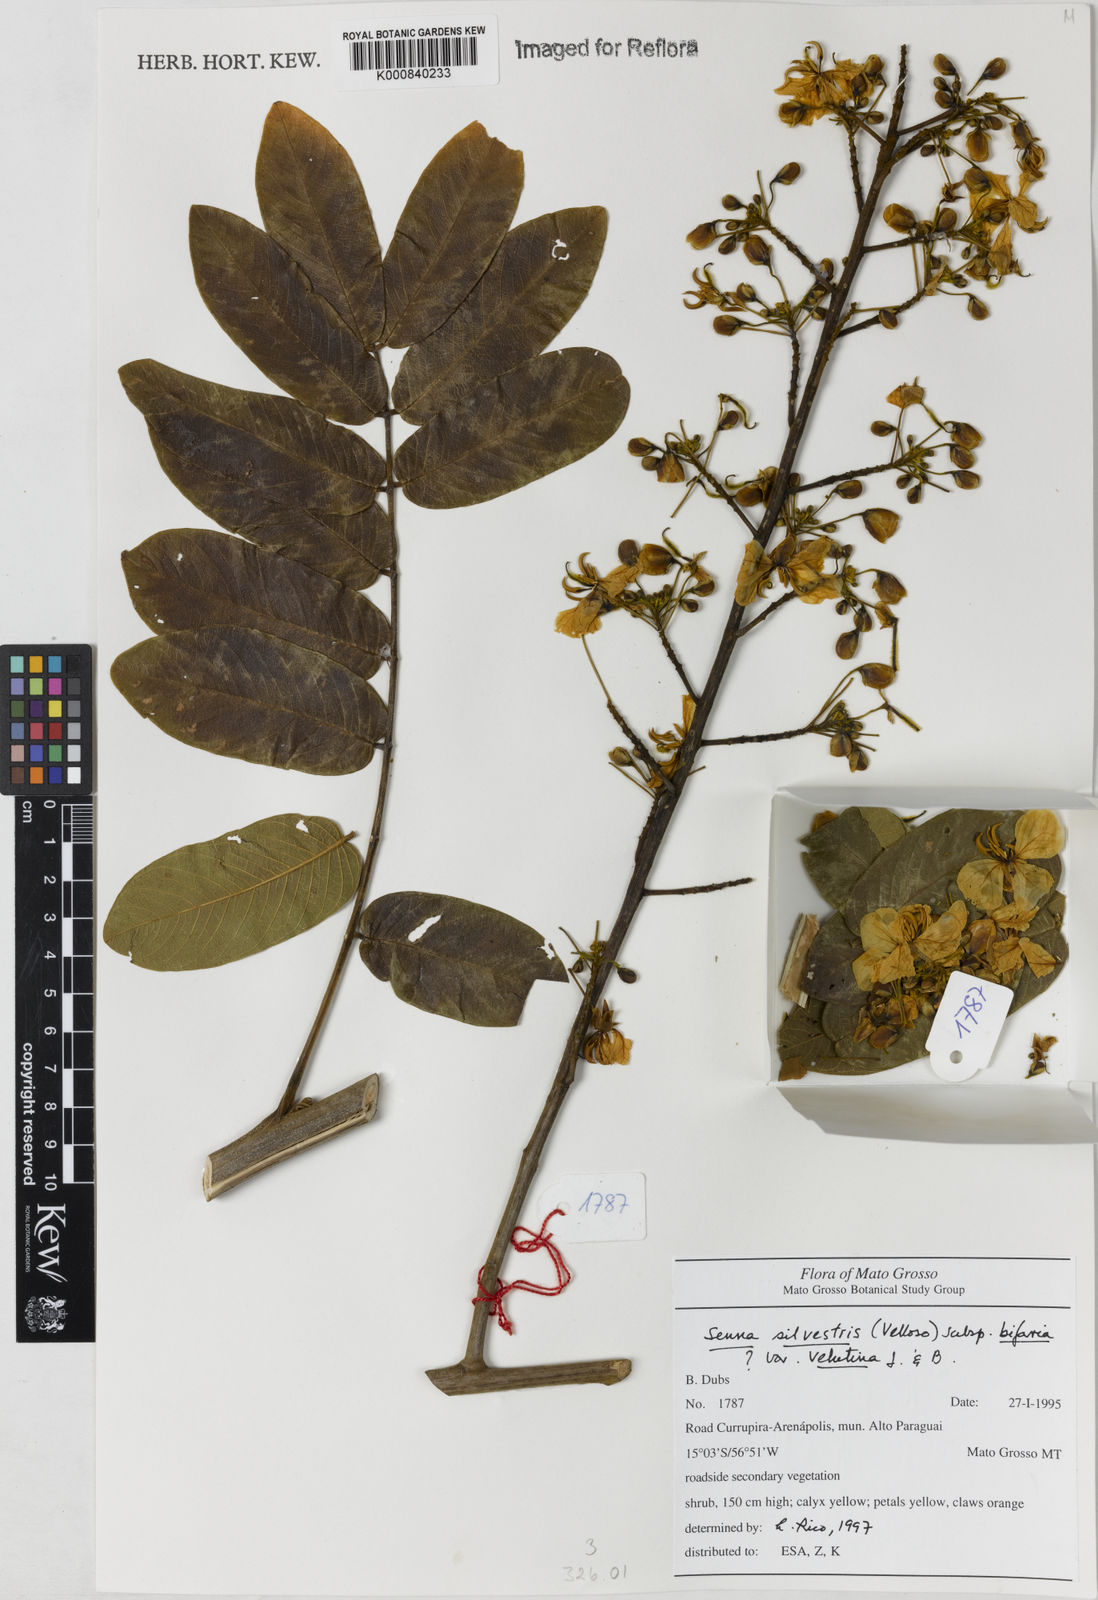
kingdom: Plantae
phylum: Tracheophyta
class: Magnoliopsida
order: Fabales
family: Fabaceae
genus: Senna
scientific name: Senna silvestris
